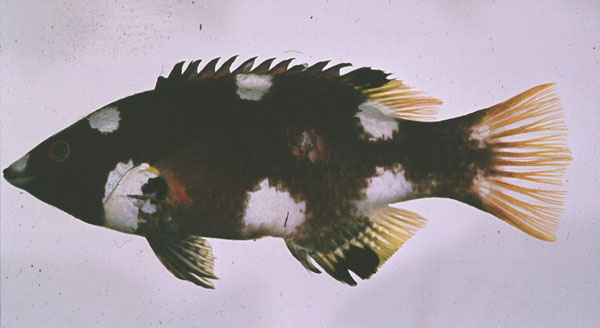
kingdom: Animalia
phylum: Chordata
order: Perciformes
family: Labridae
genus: Bodianus
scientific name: Bodianus axillaris
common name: Axilspot hogfish
